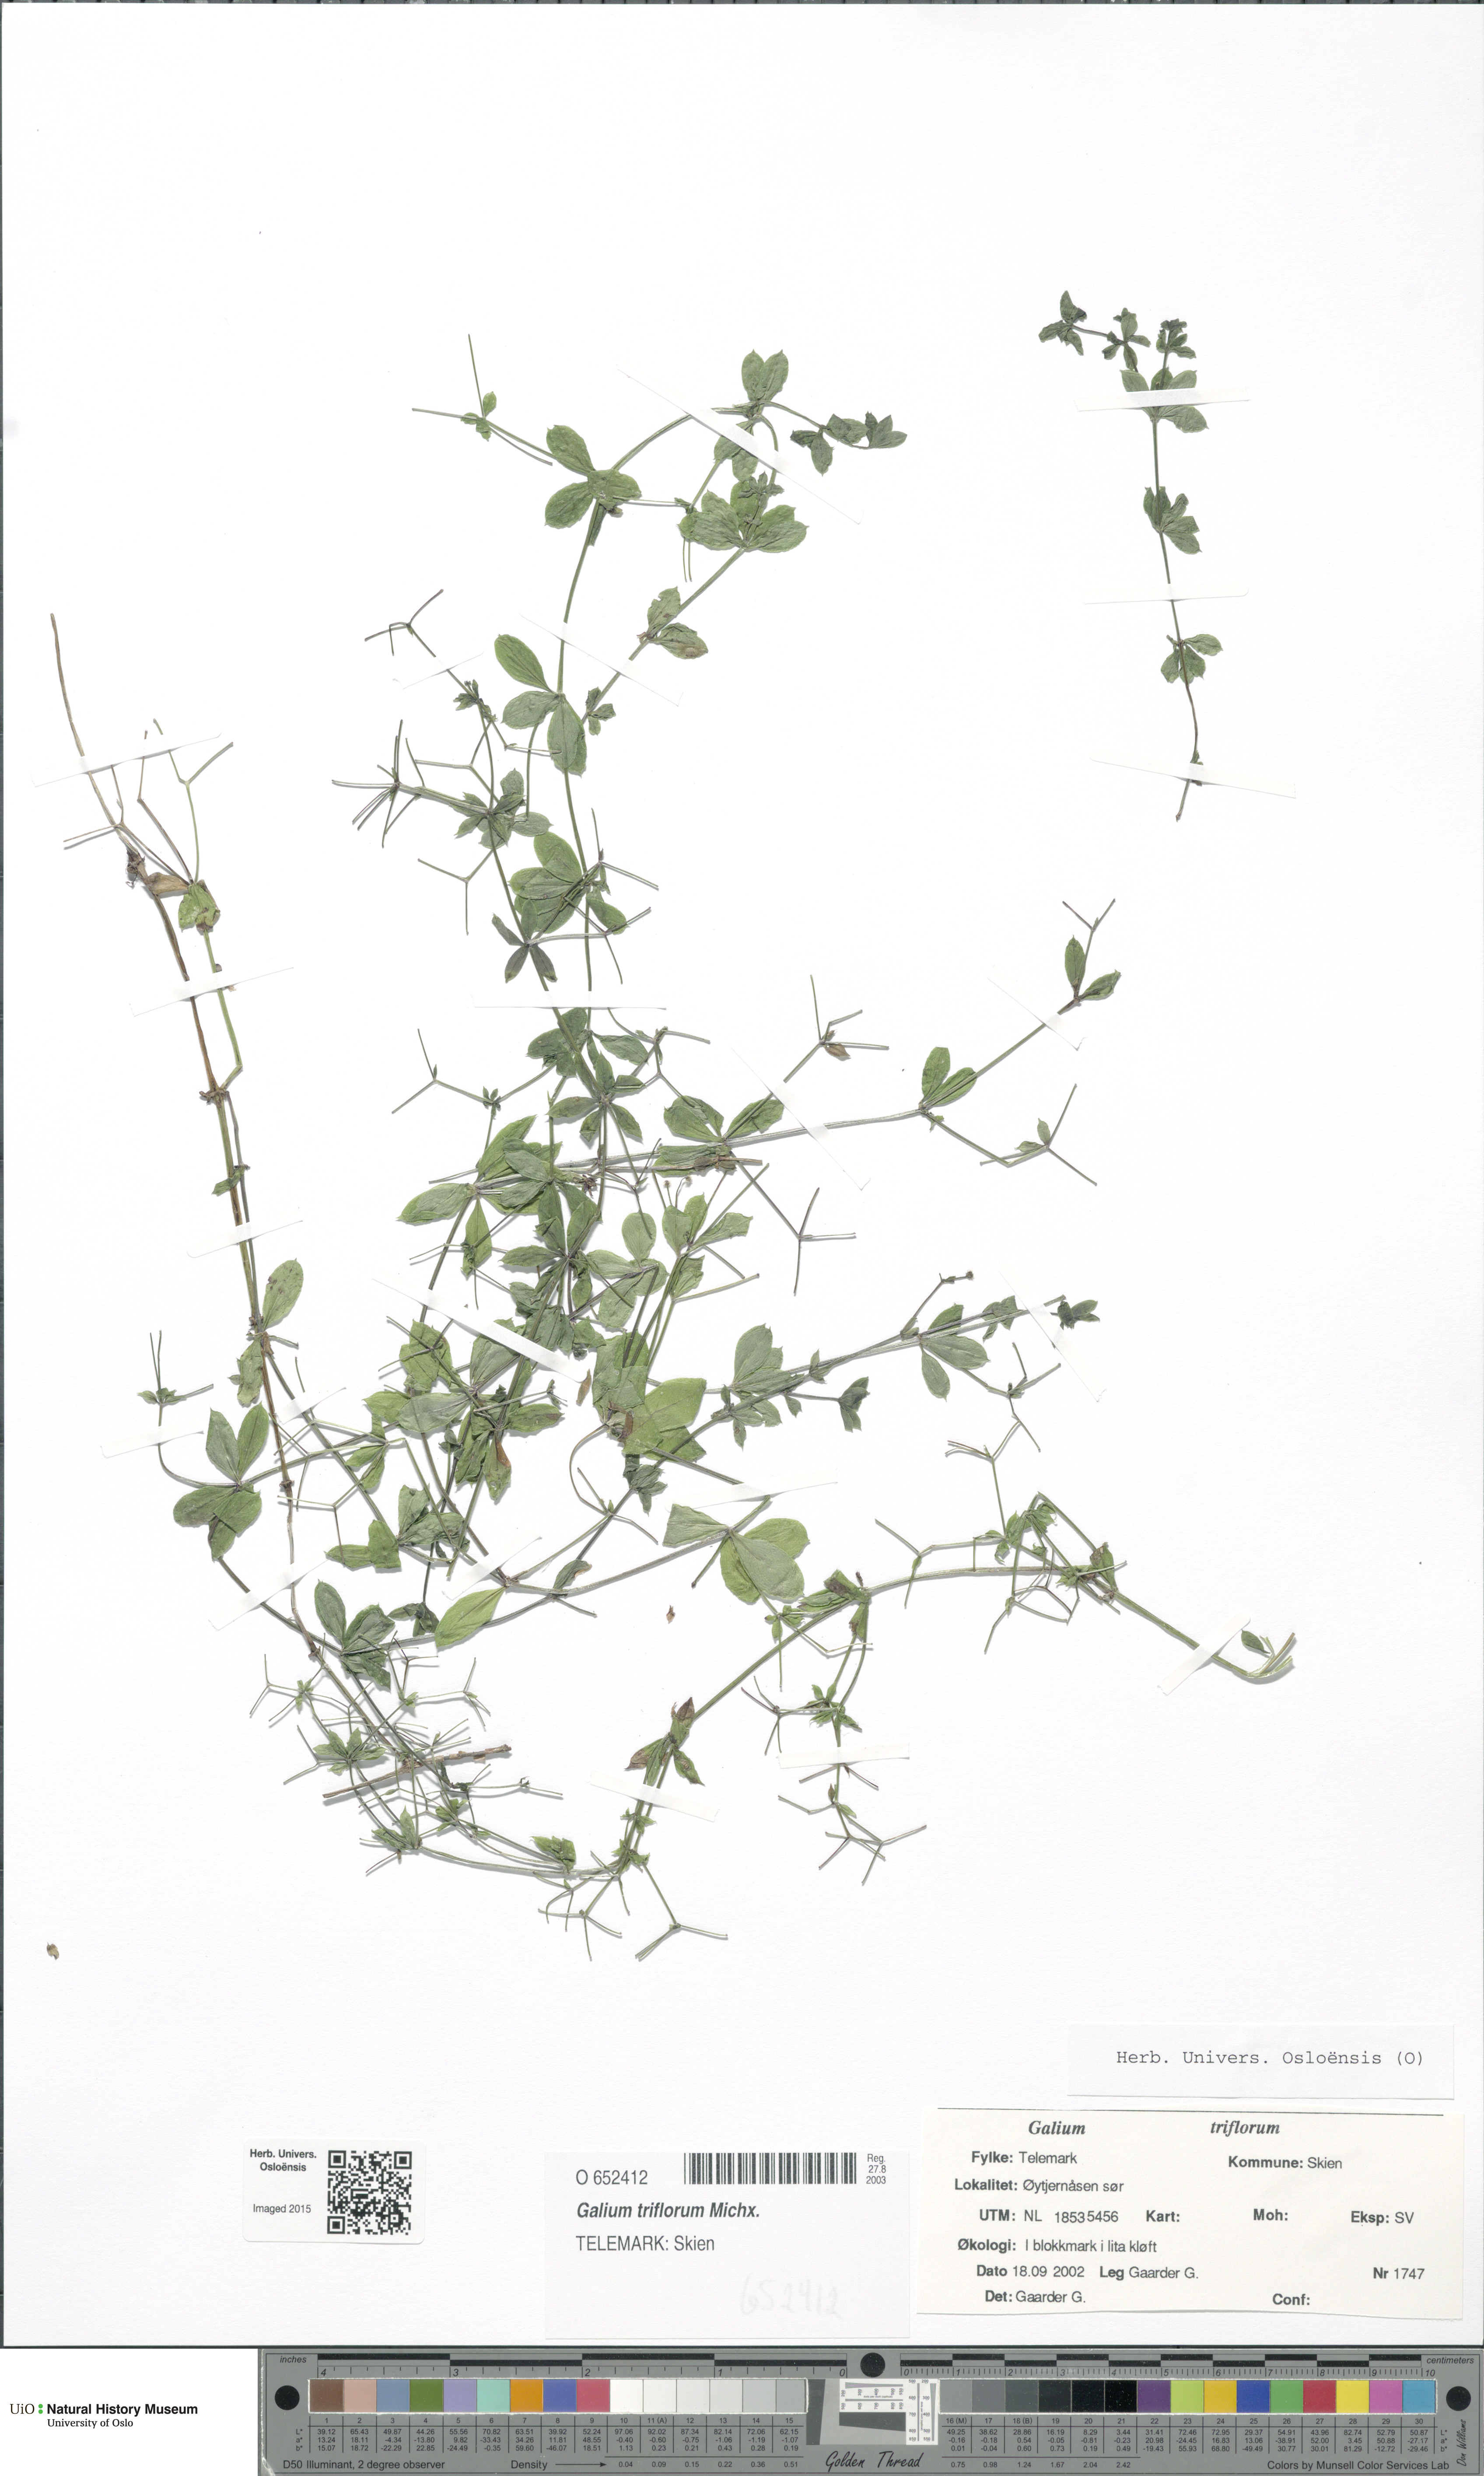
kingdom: Plantae
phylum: Tracheophyta
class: Magnoliopsida
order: Gentianales
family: Rubiaceae
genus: Galium
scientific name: Galium triflorum
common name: Fragrant bedstraw
